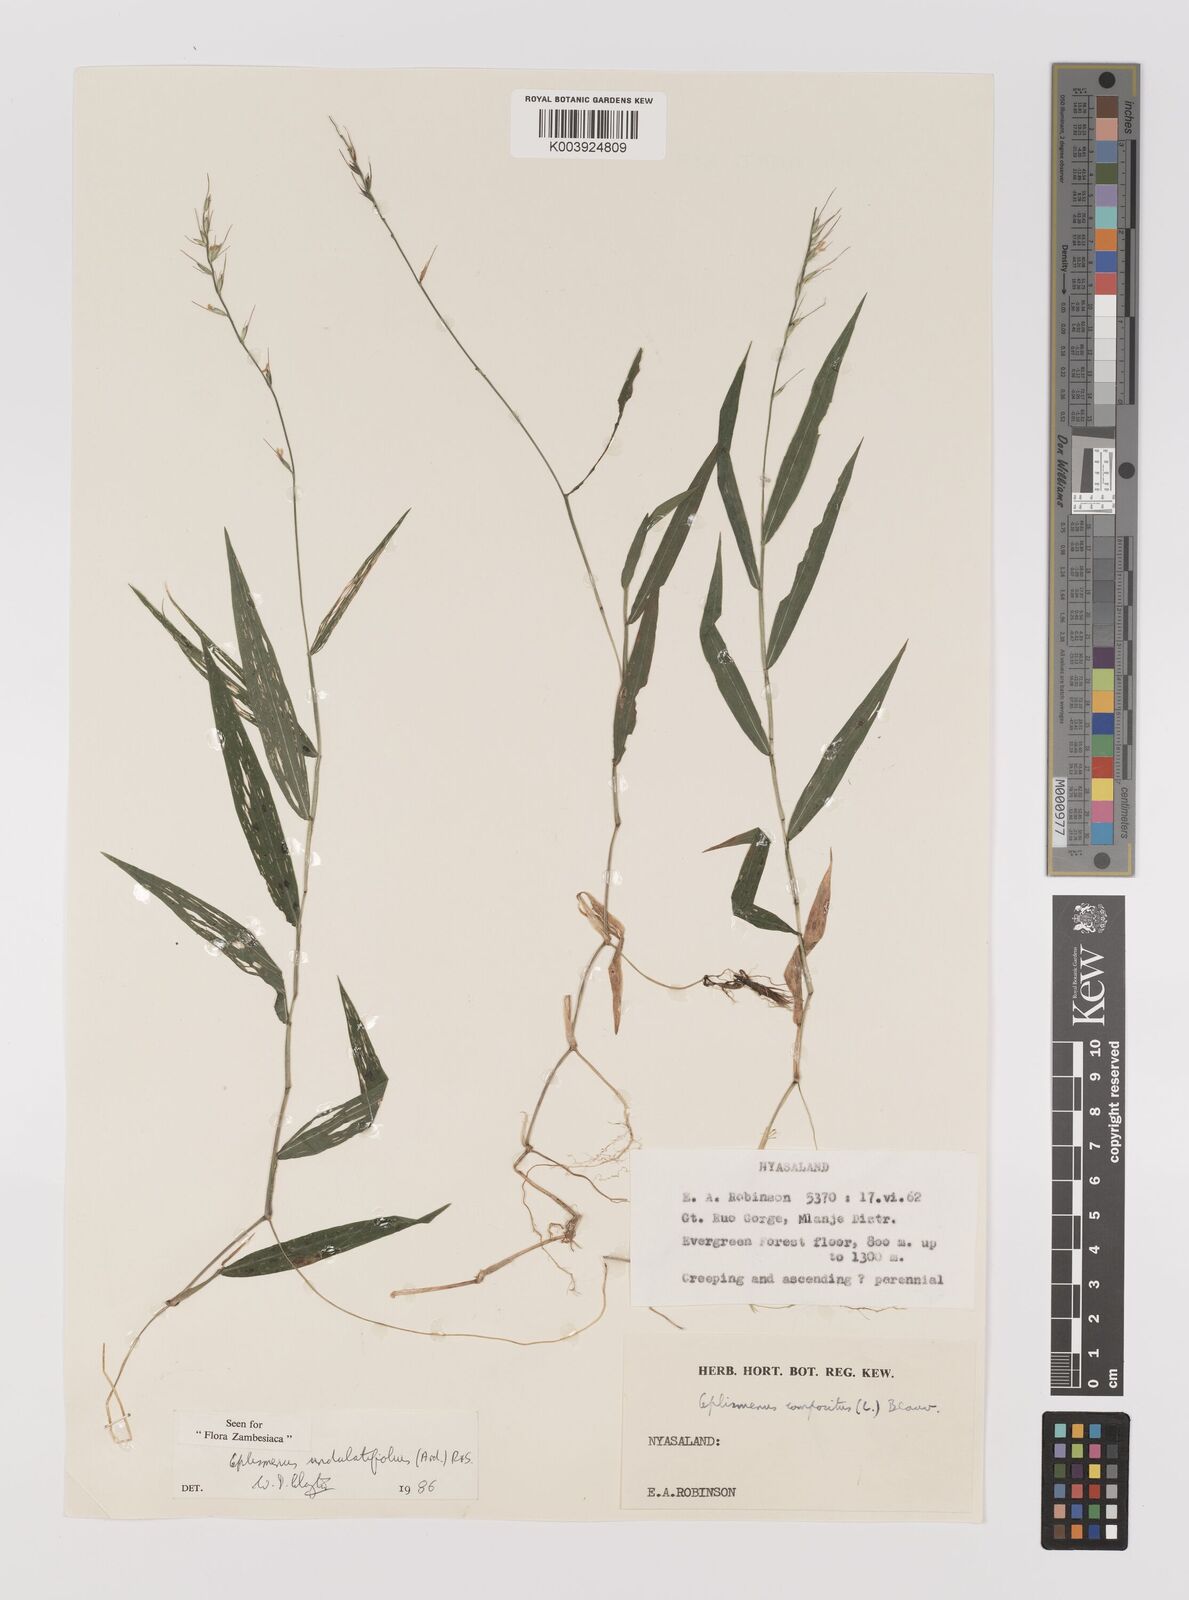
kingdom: Plantae
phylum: Tracheophyta
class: Liliopsida
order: Poales
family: Poaceae
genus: Oplismenus
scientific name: Oplismenus undulatifolius
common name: Wavyleaf basketgrass
